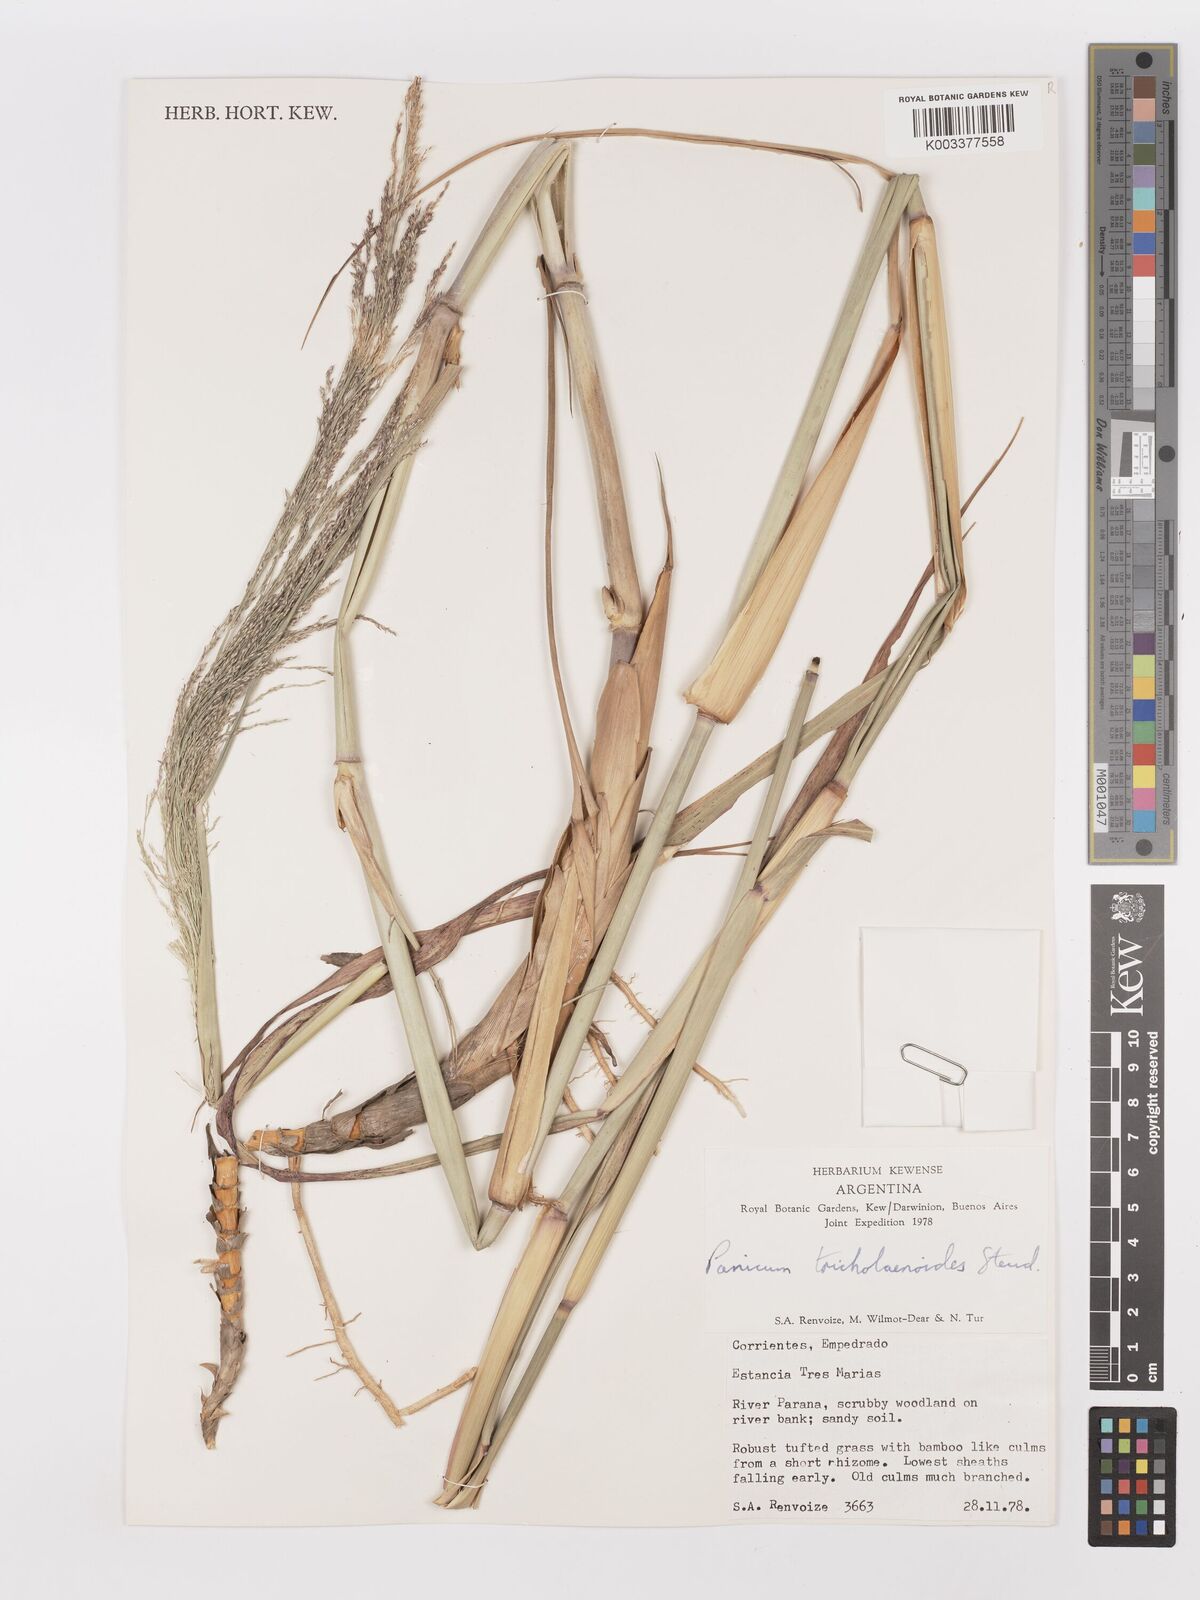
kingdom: Plantae
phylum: Tracheophyta
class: Liliopsida
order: Poales
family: Poaceae
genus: Panicum
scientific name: Panicum tricholaenoides
